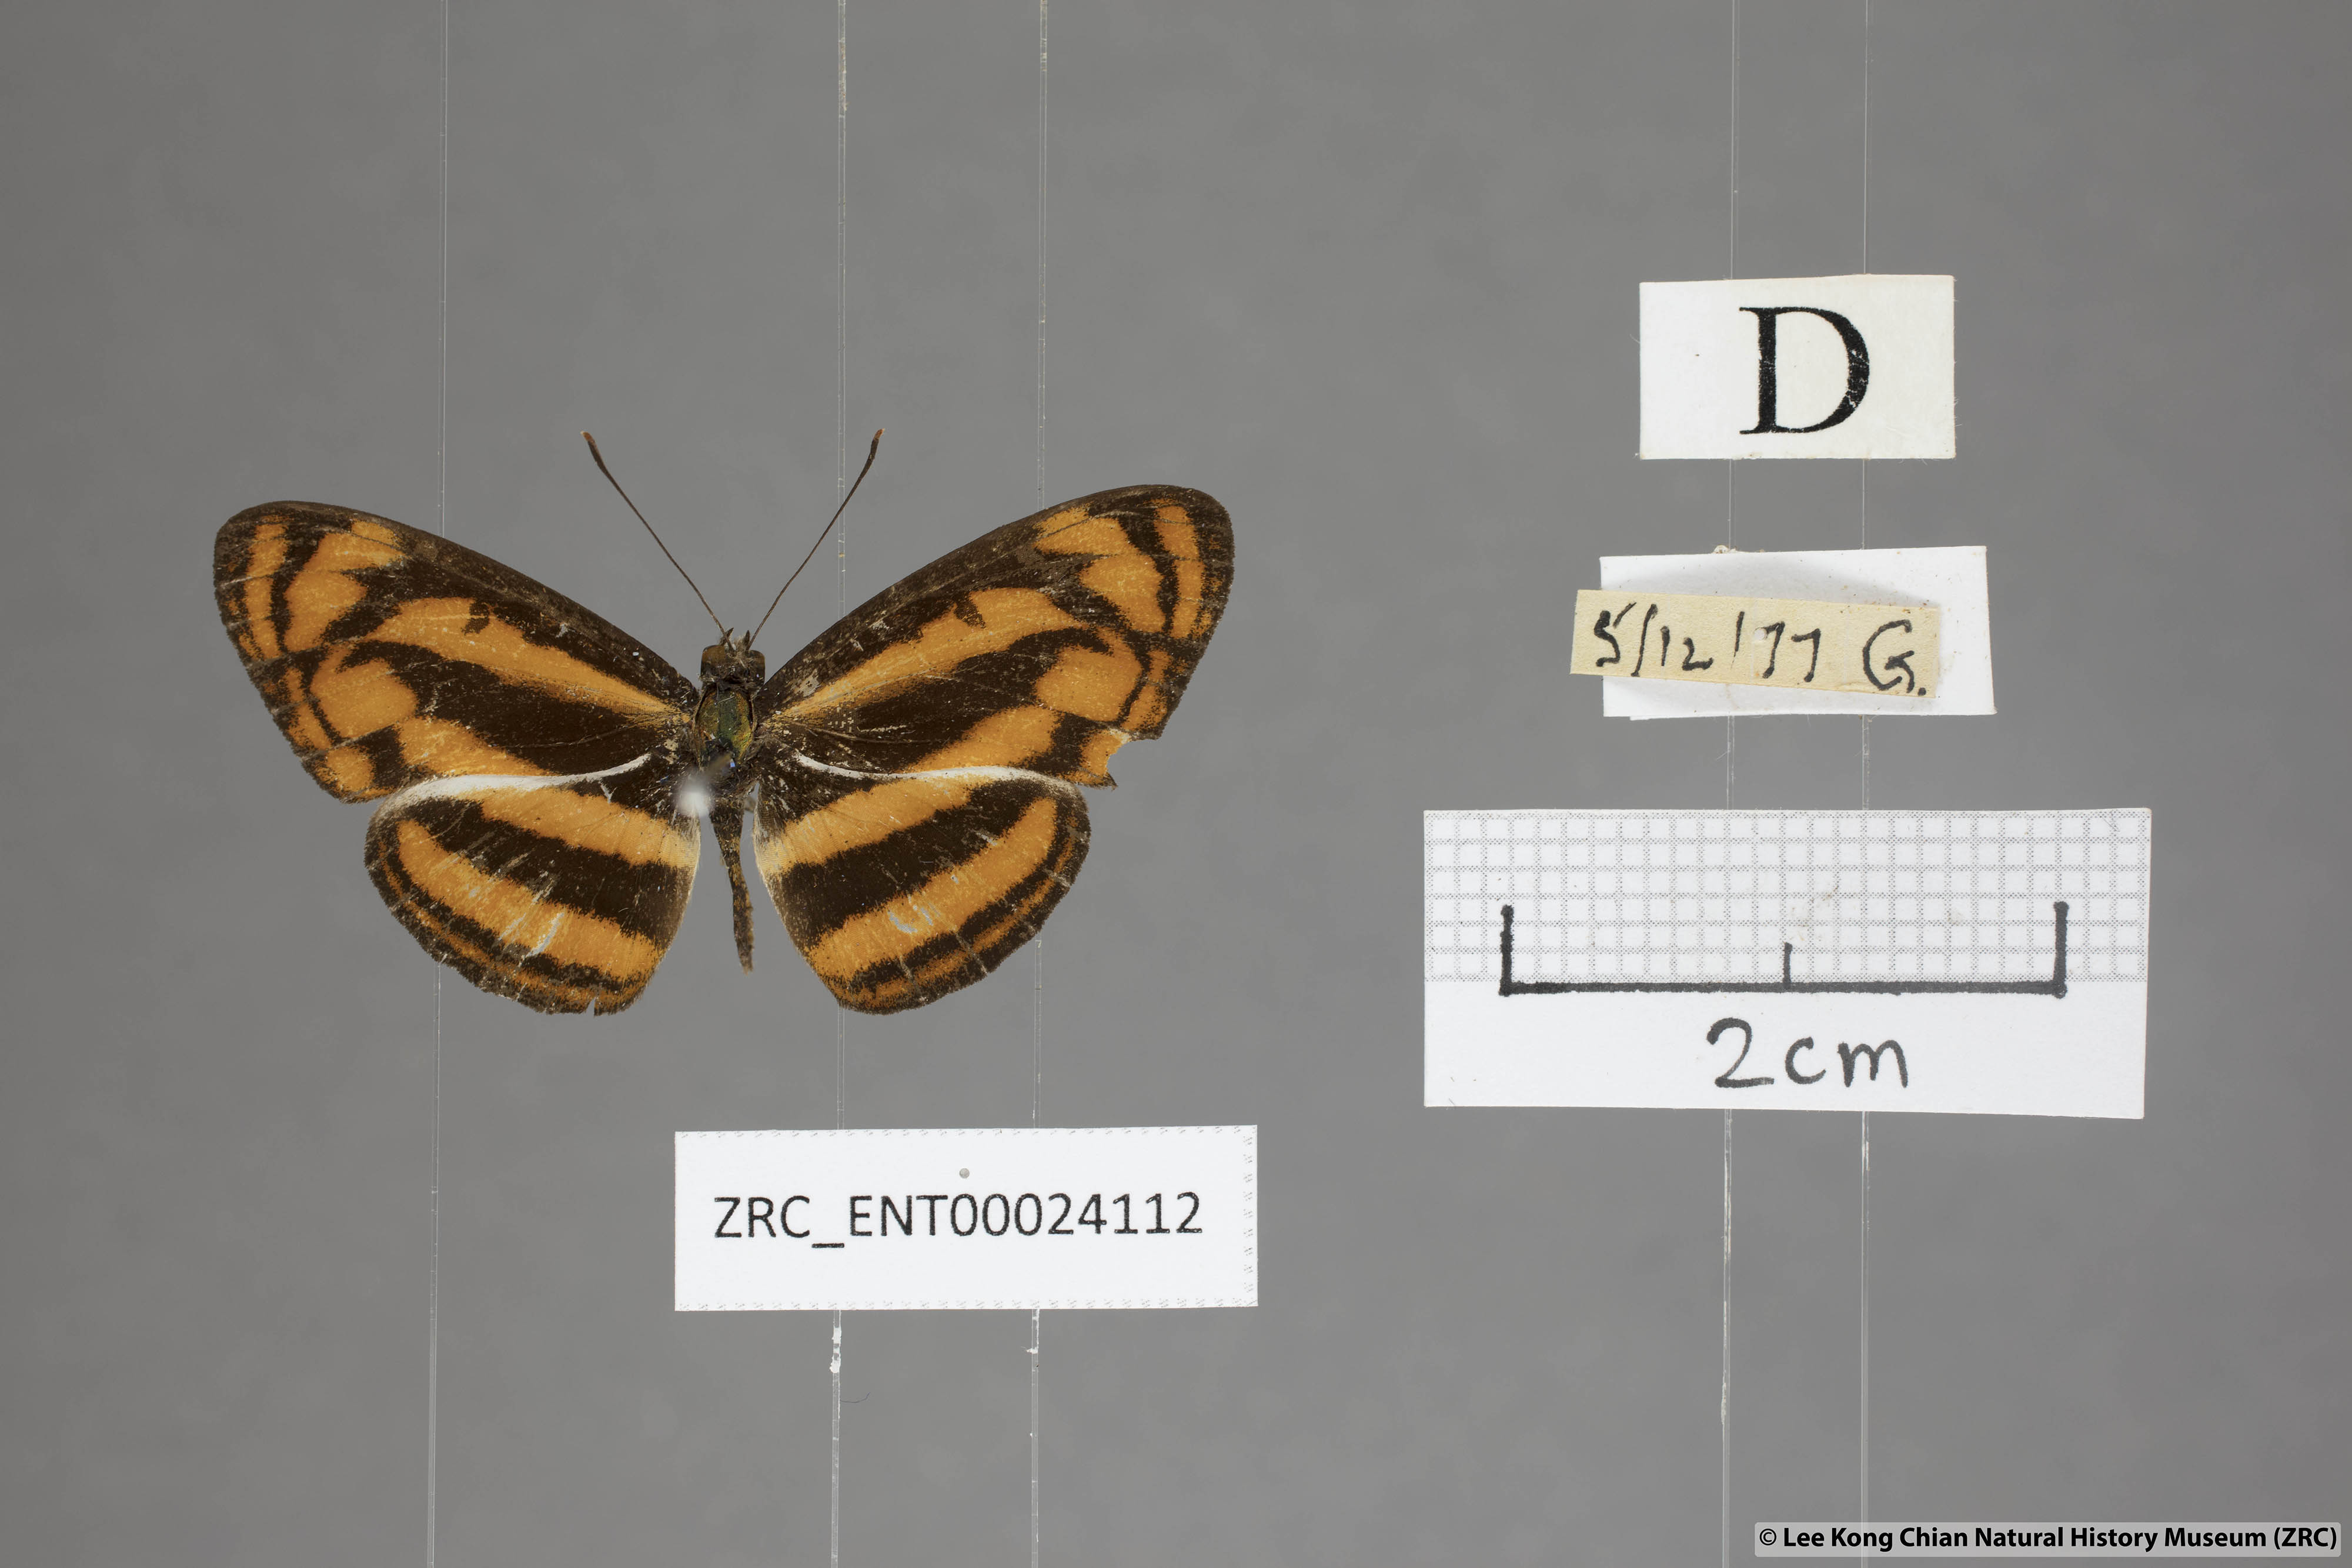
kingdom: Animalia
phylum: Arthropoda
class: Insecta
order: Lepidoptera
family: Nymphalidae
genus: Pantoporia
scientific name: Pantoporia aurelia
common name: Baby lascar
